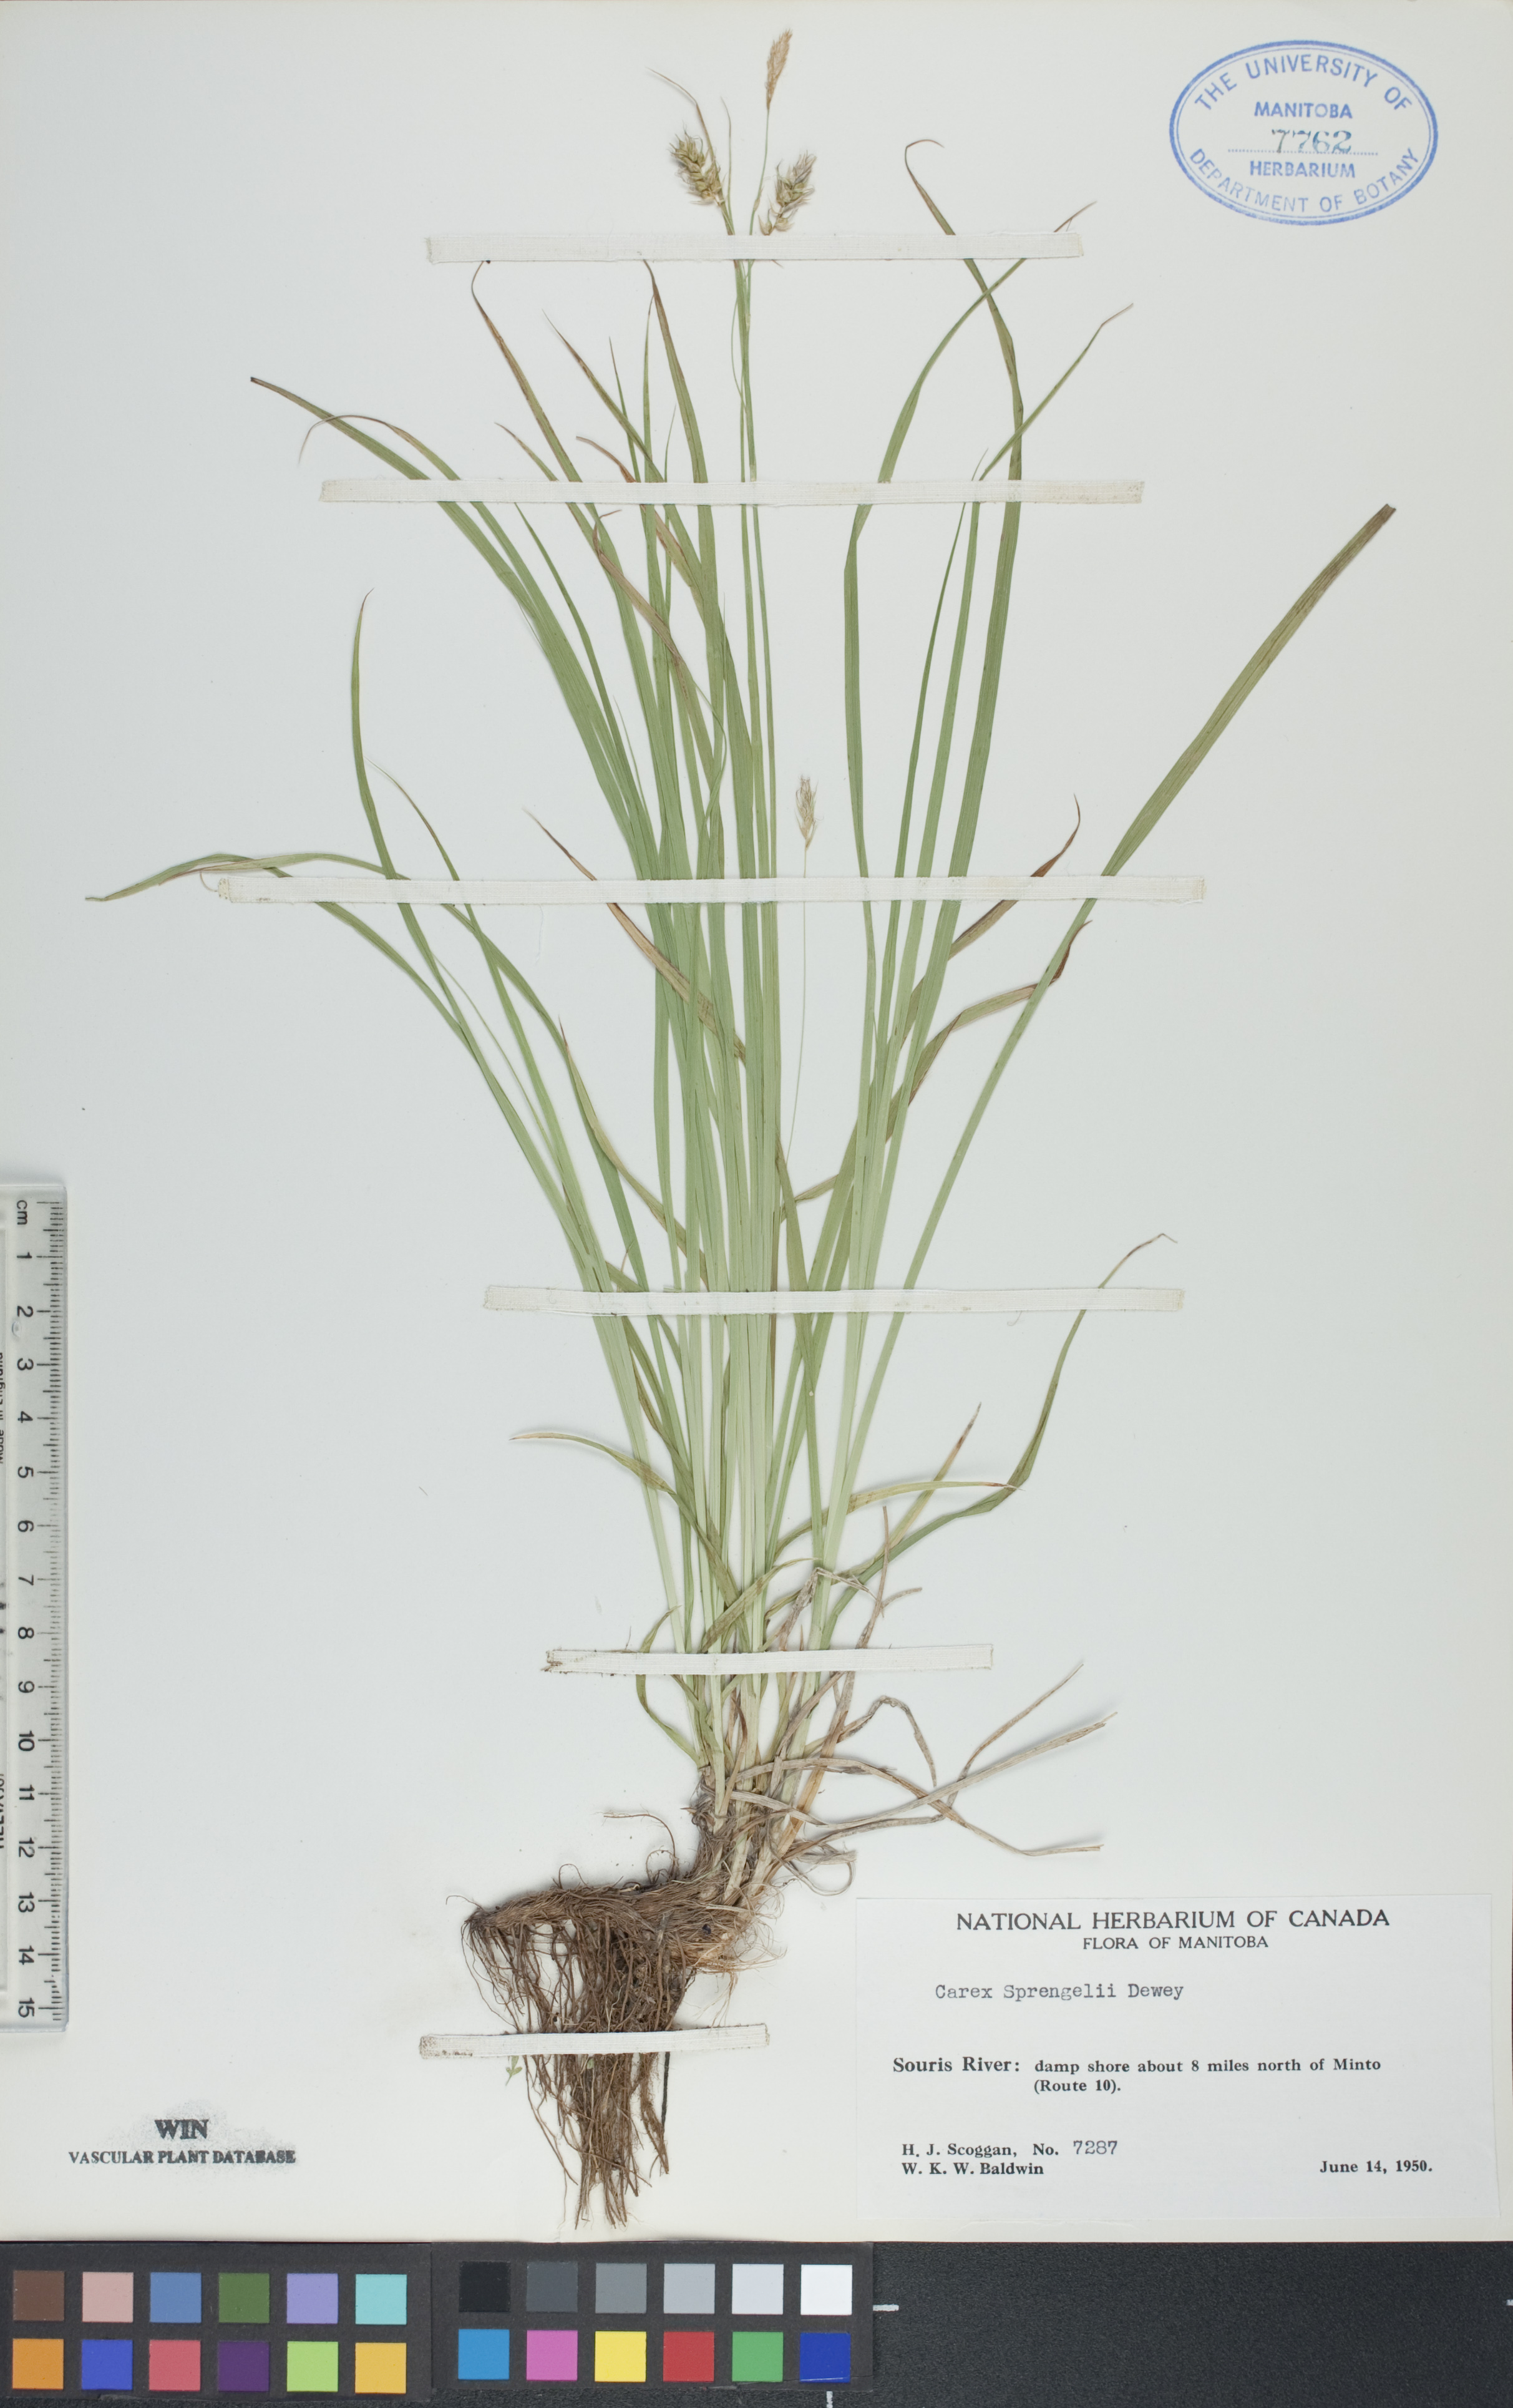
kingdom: Plantae
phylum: Tracheophyta
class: Liliopsida
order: Poales
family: Cyperaceae
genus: Carex
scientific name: Carex sprengelii
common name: Long-beaked sedge
